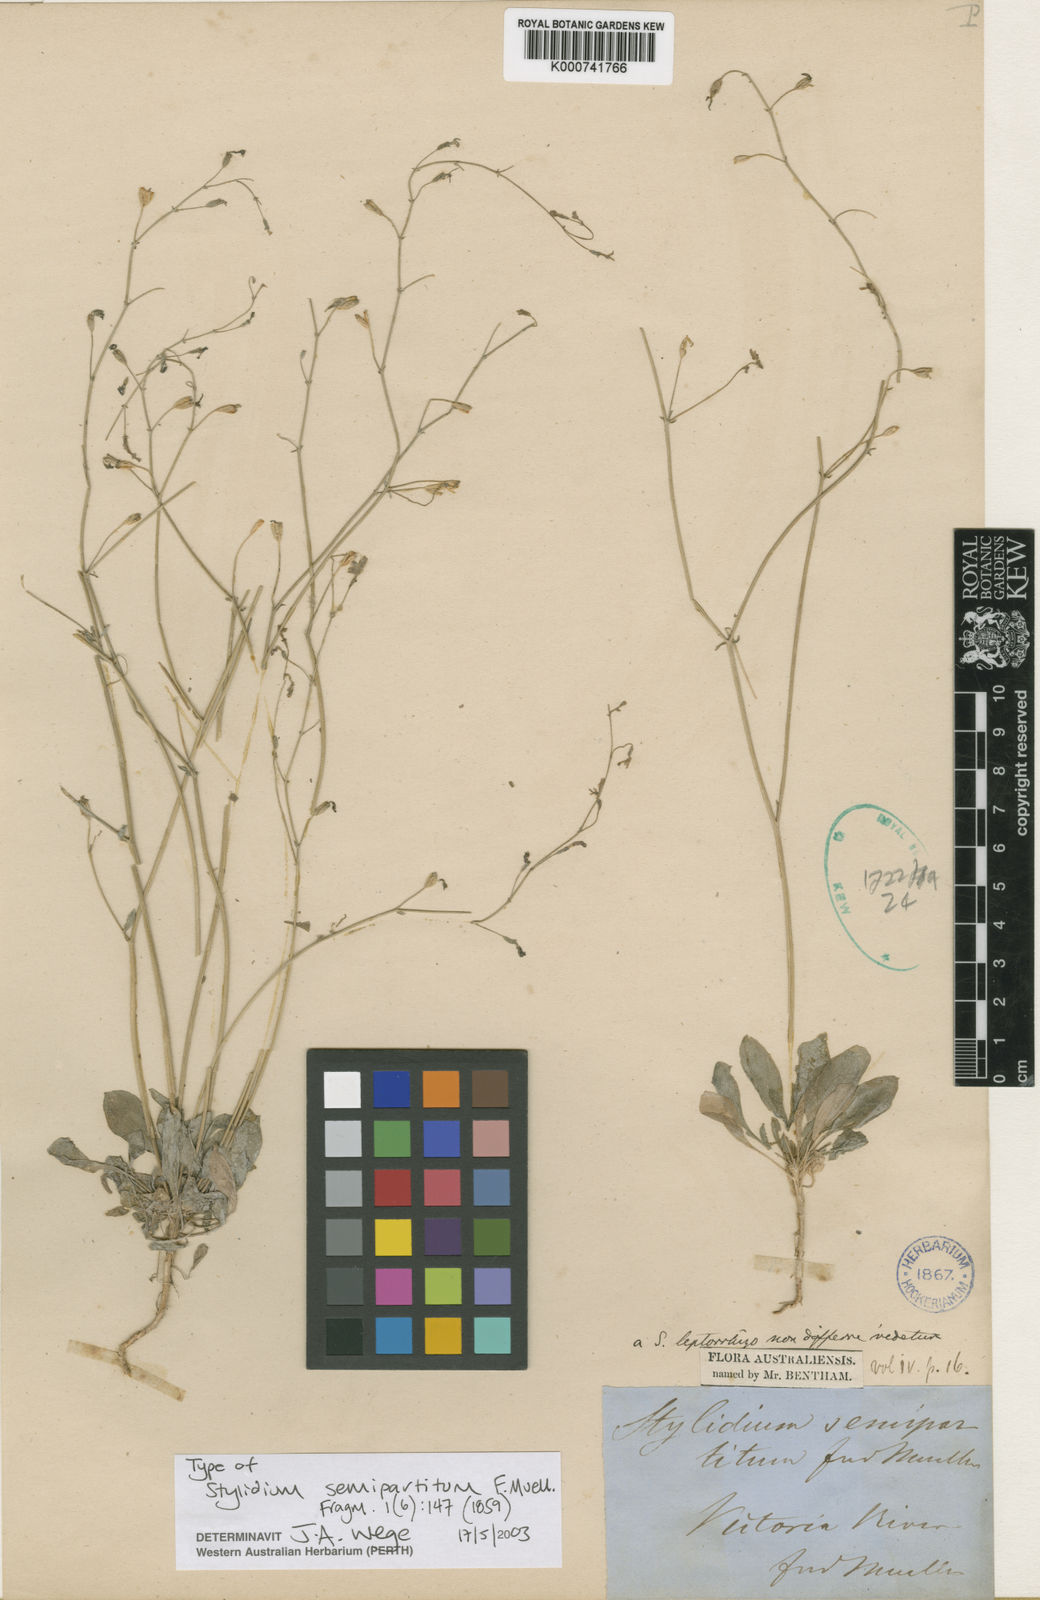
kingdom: Plantae
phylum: Tracheophyta
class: Magnoliopsida
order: Asterales
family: Stylidiaceae
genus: Stylidium
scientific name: Stylidium semipartitum
